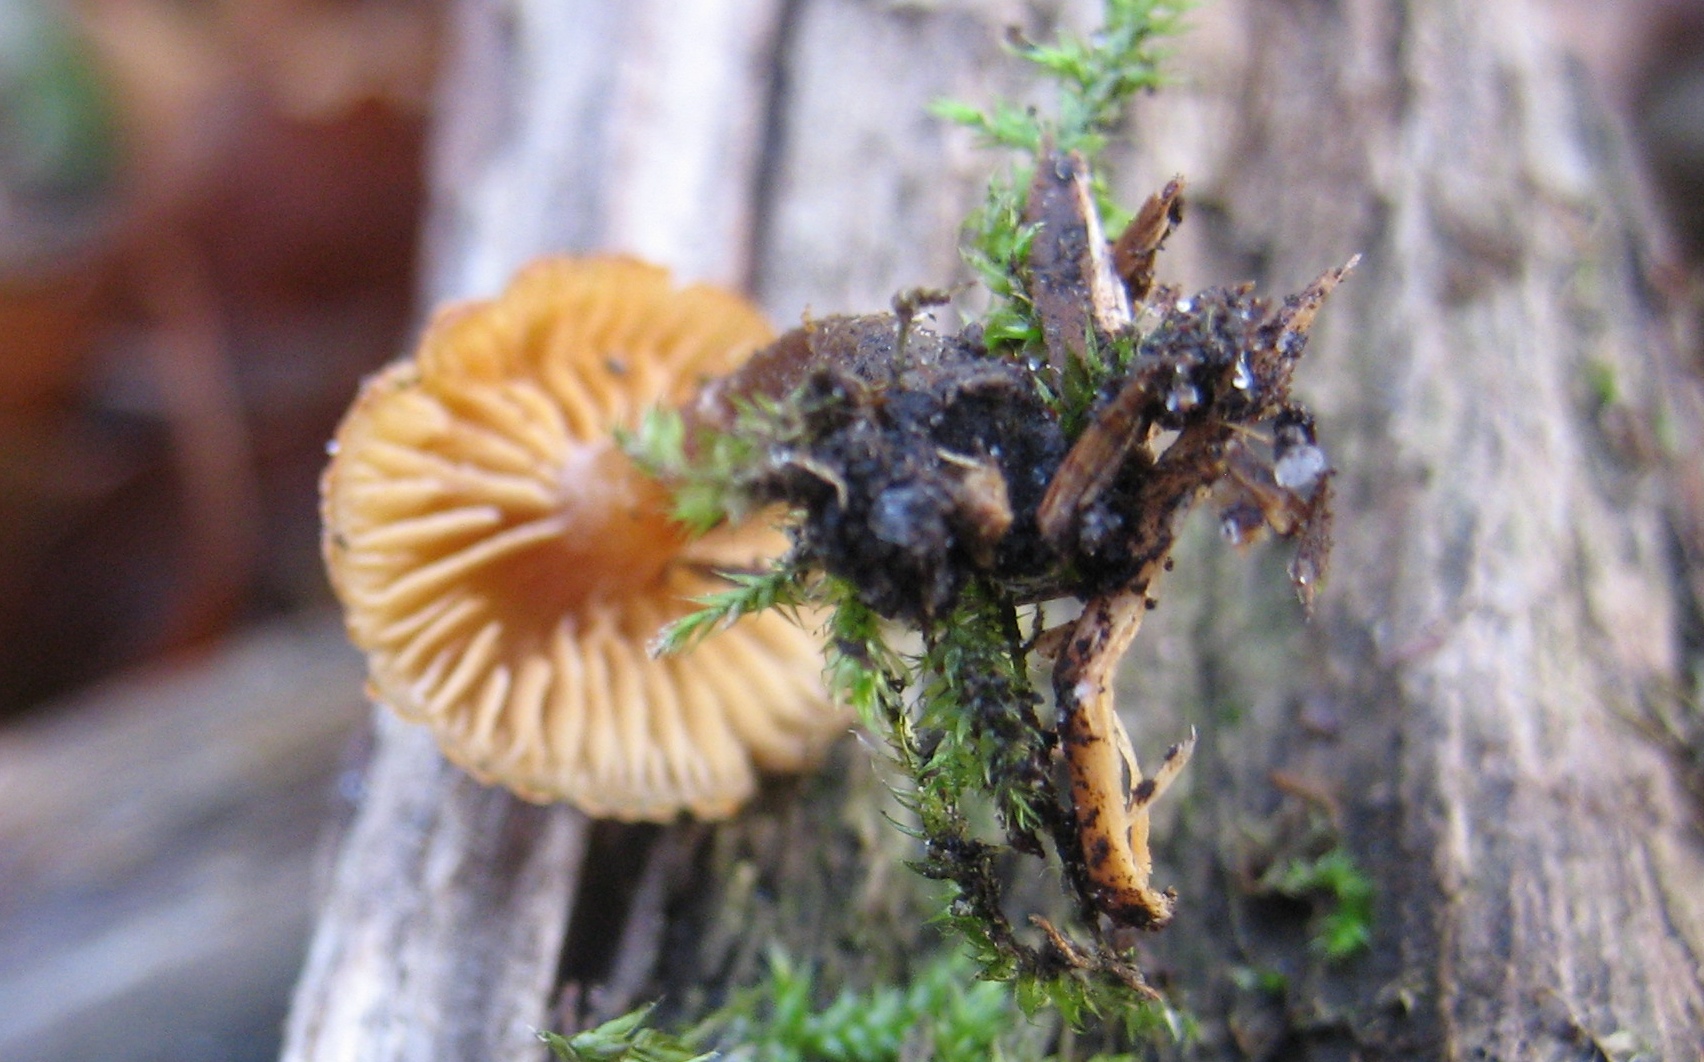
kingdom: Fungi
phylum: Basidiomycota
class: Agaricomycetes
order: Agaricales
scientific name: Agaricales
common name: champignonordenen
